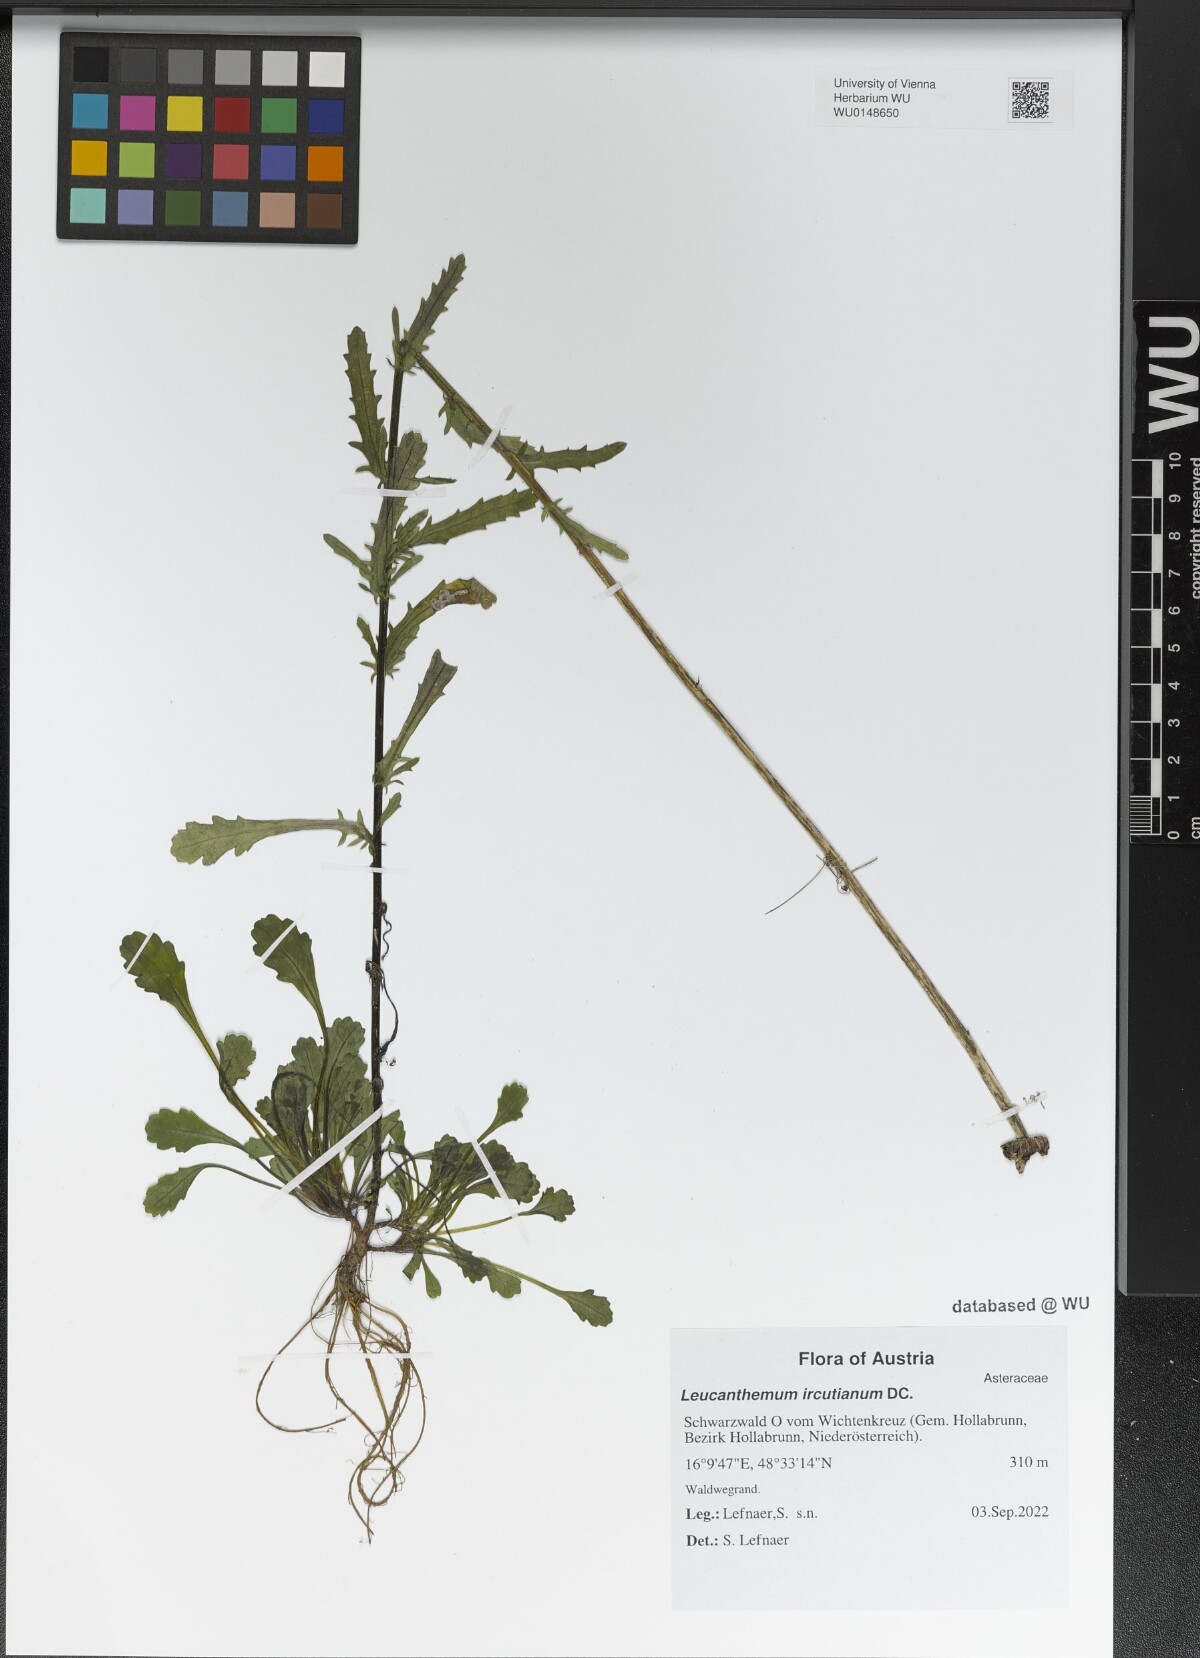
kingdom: Plantae
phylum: Tracheophyta
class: Magnoliopsida
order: Asterales
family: Asteraceae
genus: Leucanthemum
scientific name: Leucanthemum ircutianum
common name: Daisy
